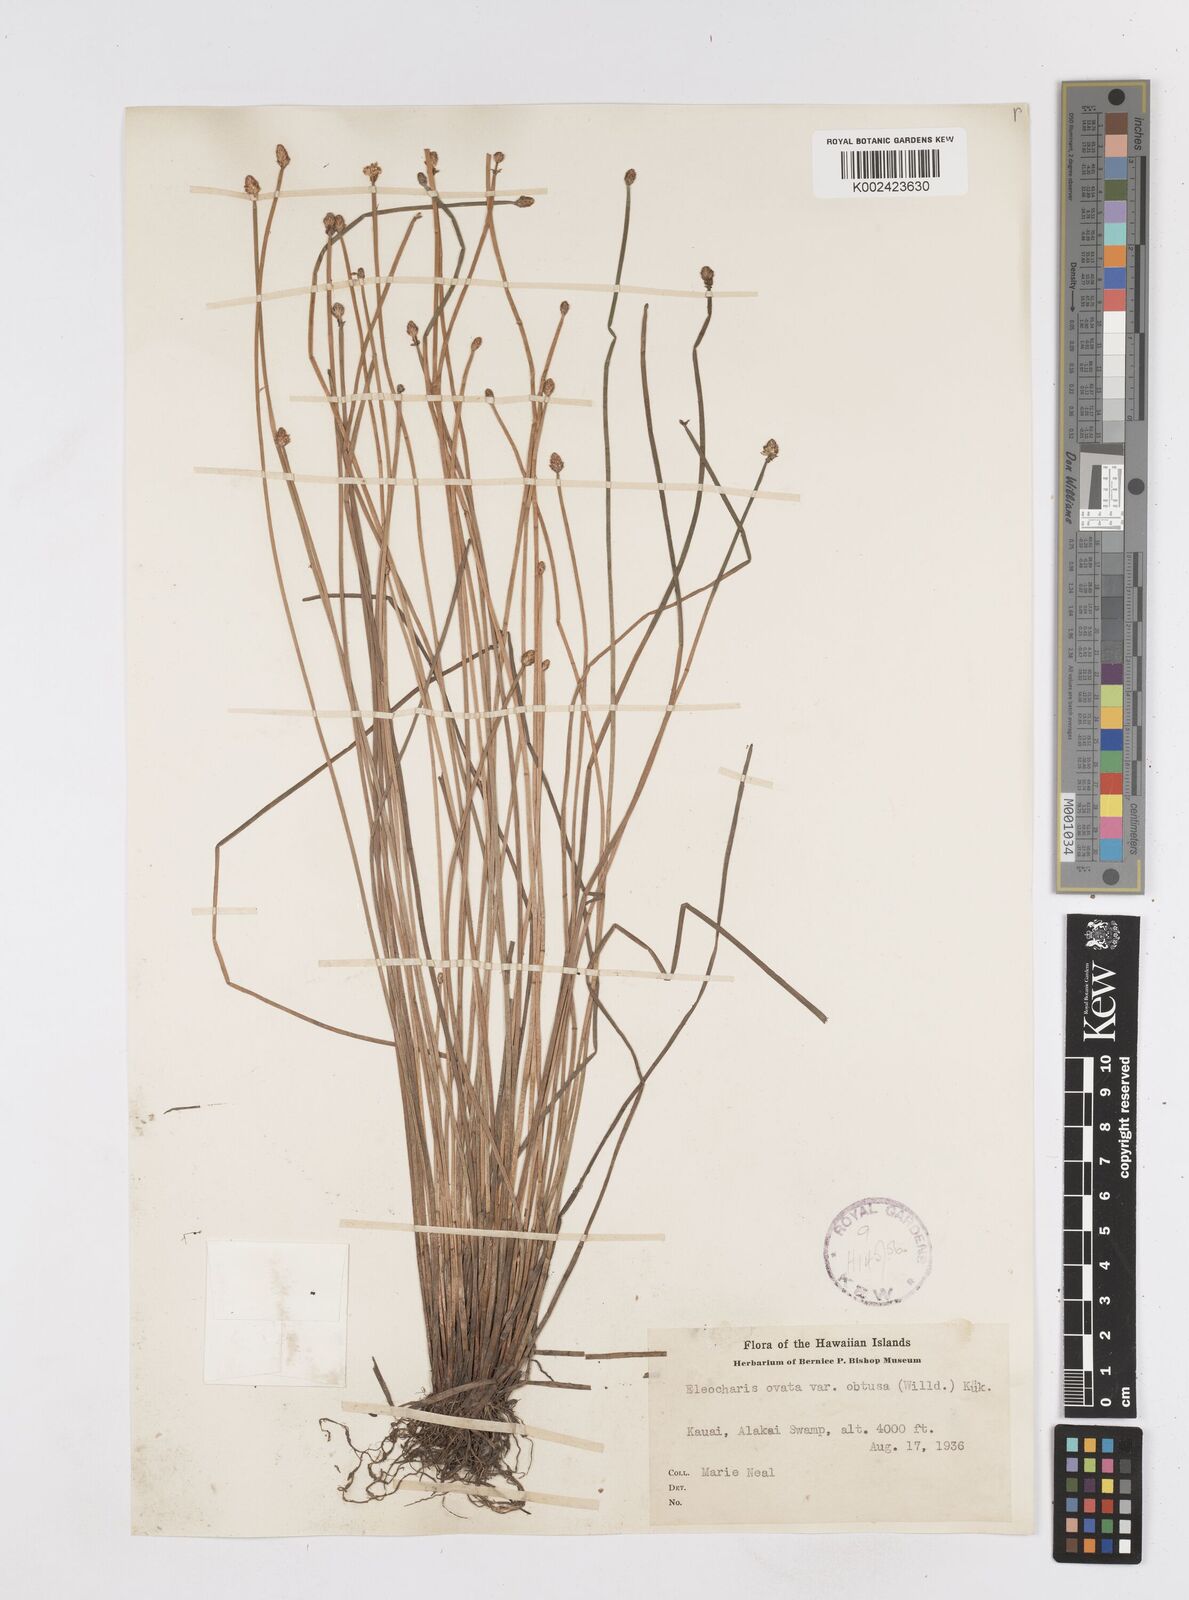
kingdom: Plantae
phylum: Tracheophyta
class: Liliopsida
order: Poales
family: Cyperaceae
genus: Eleocharis
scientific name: Eleocharis obtusa
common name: Blunt spikerush
